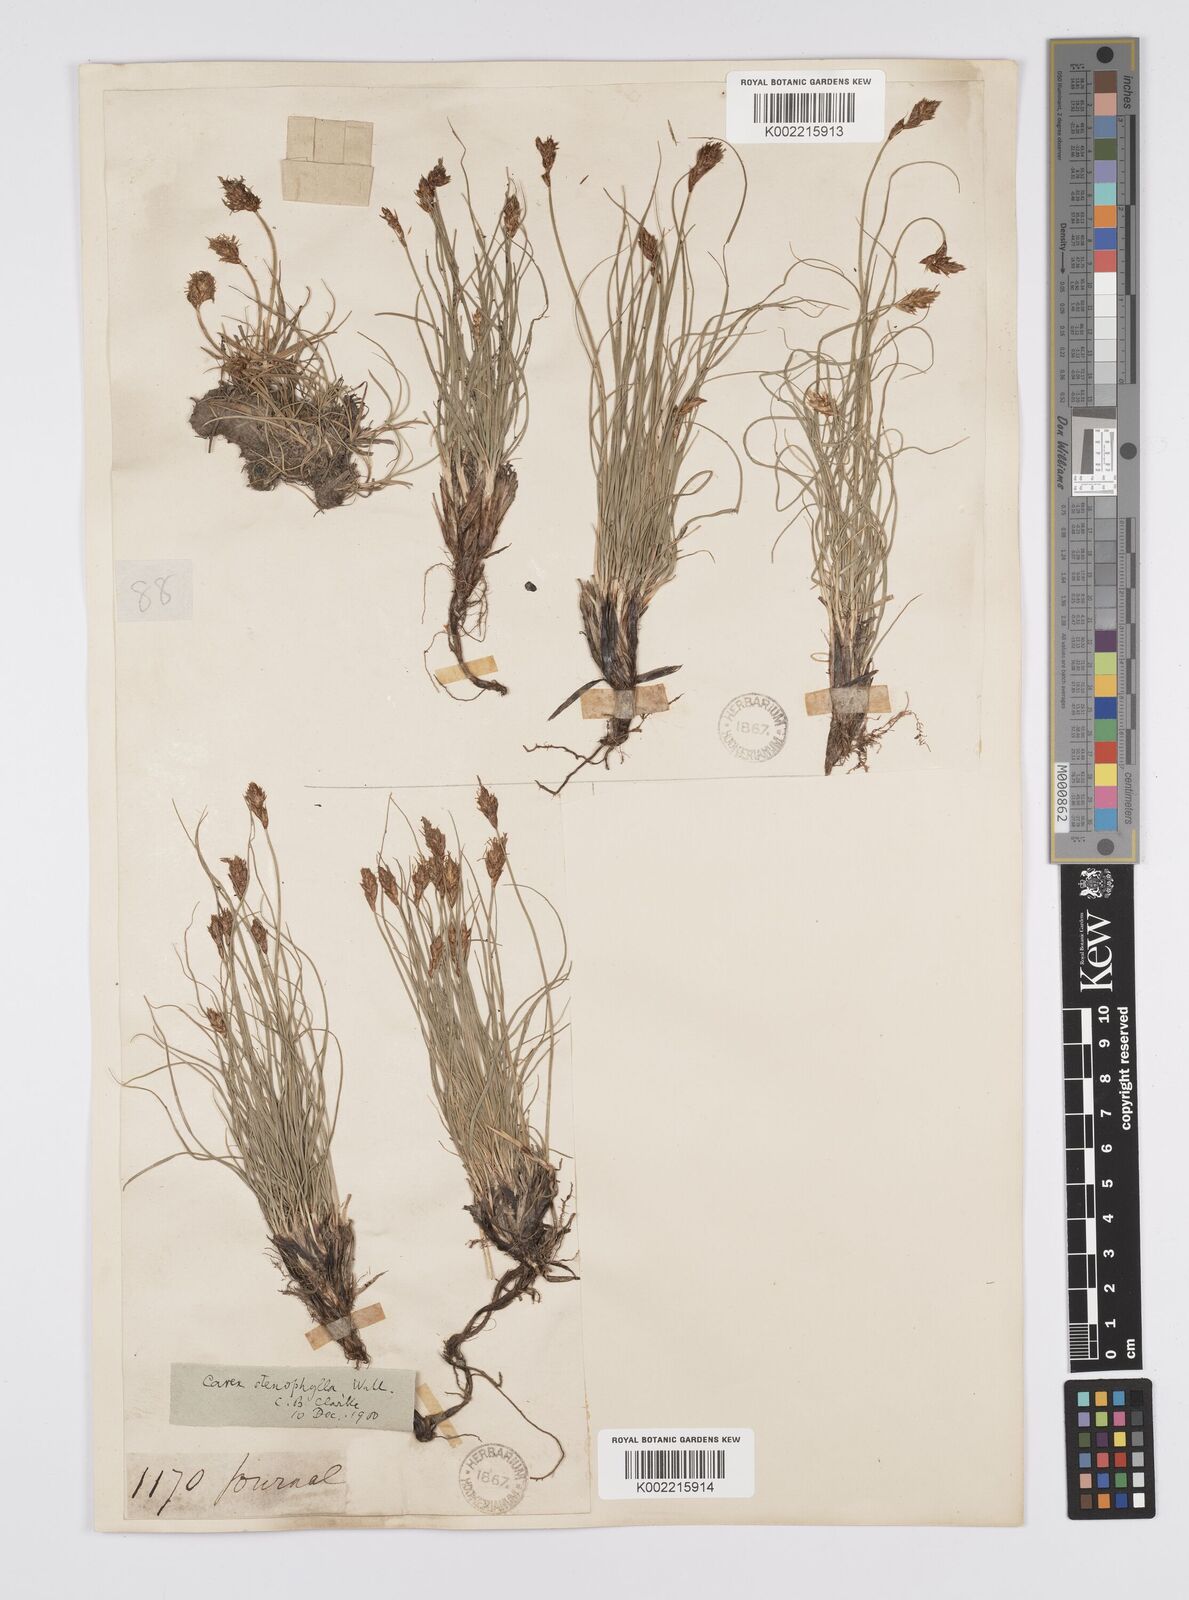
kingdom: Plantae
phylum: Tracheophyta
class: Liliopsida
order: Poales
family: Cyperaceae
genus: Carex
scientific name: Carex stenophylla
